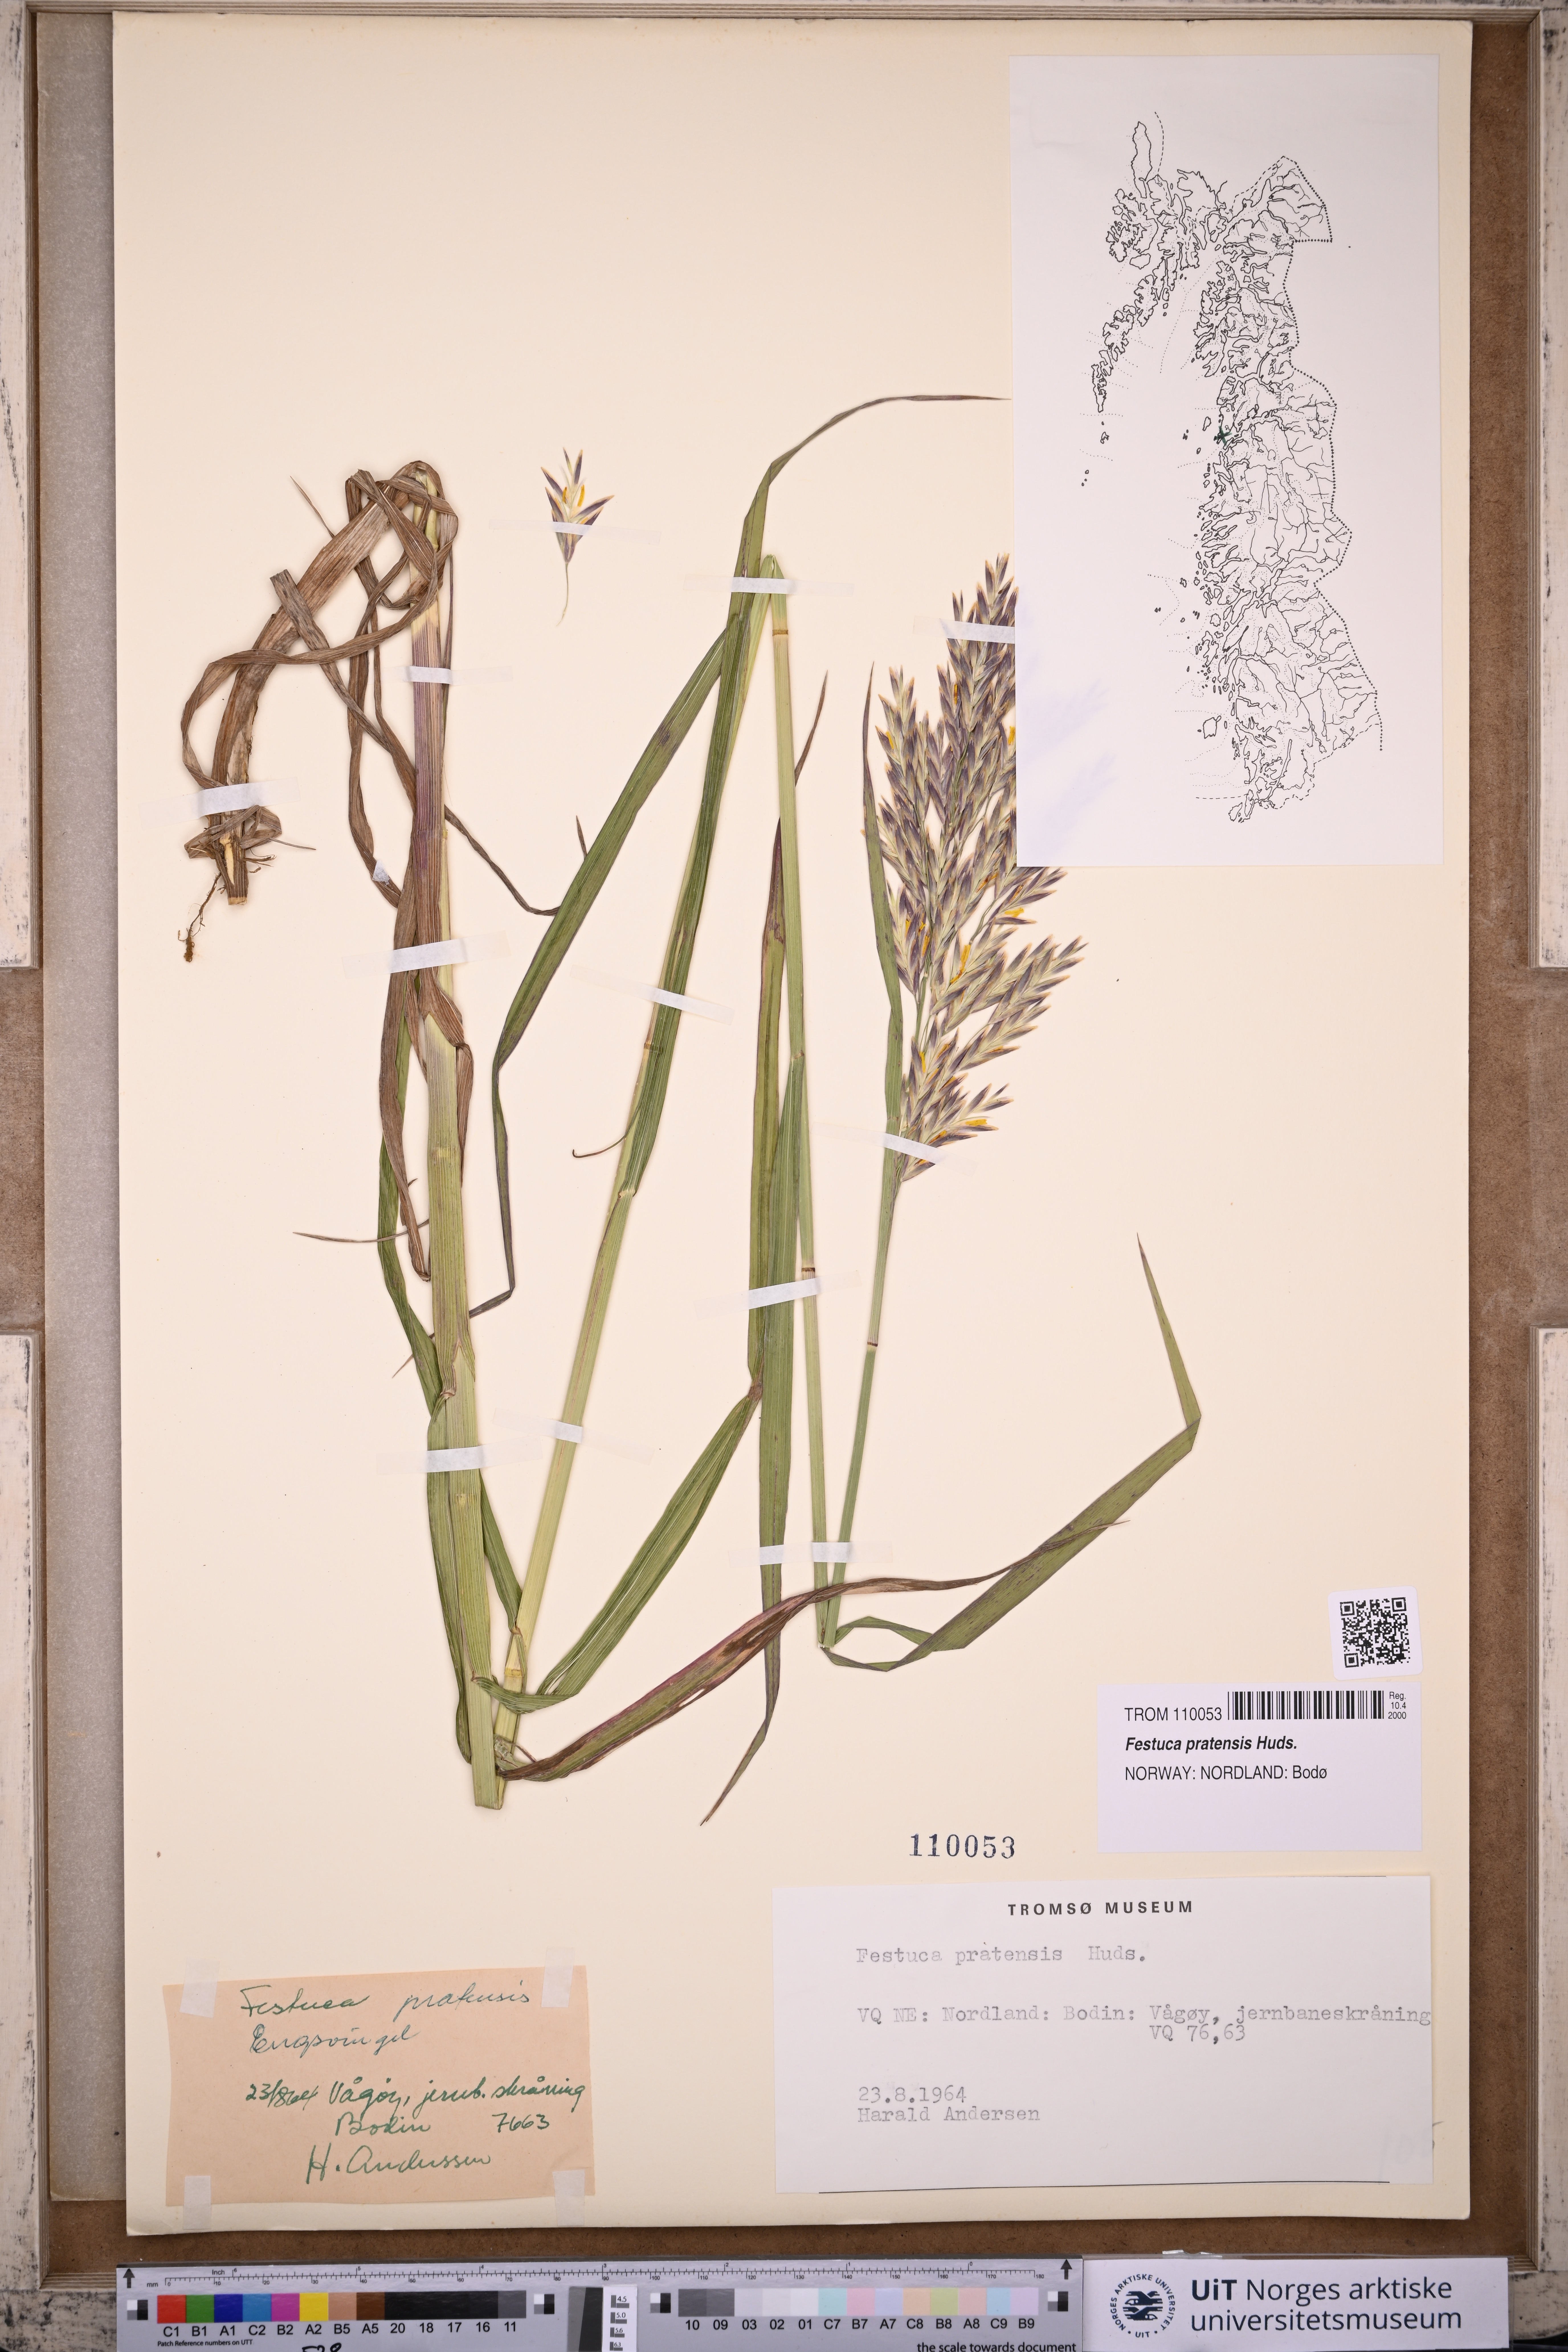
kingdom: Plantae
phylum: Tracheophyta
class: Liliopsida
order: Poales
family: Poaceae
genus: Lolium
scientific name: Lolium pratense
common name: Dover grass
